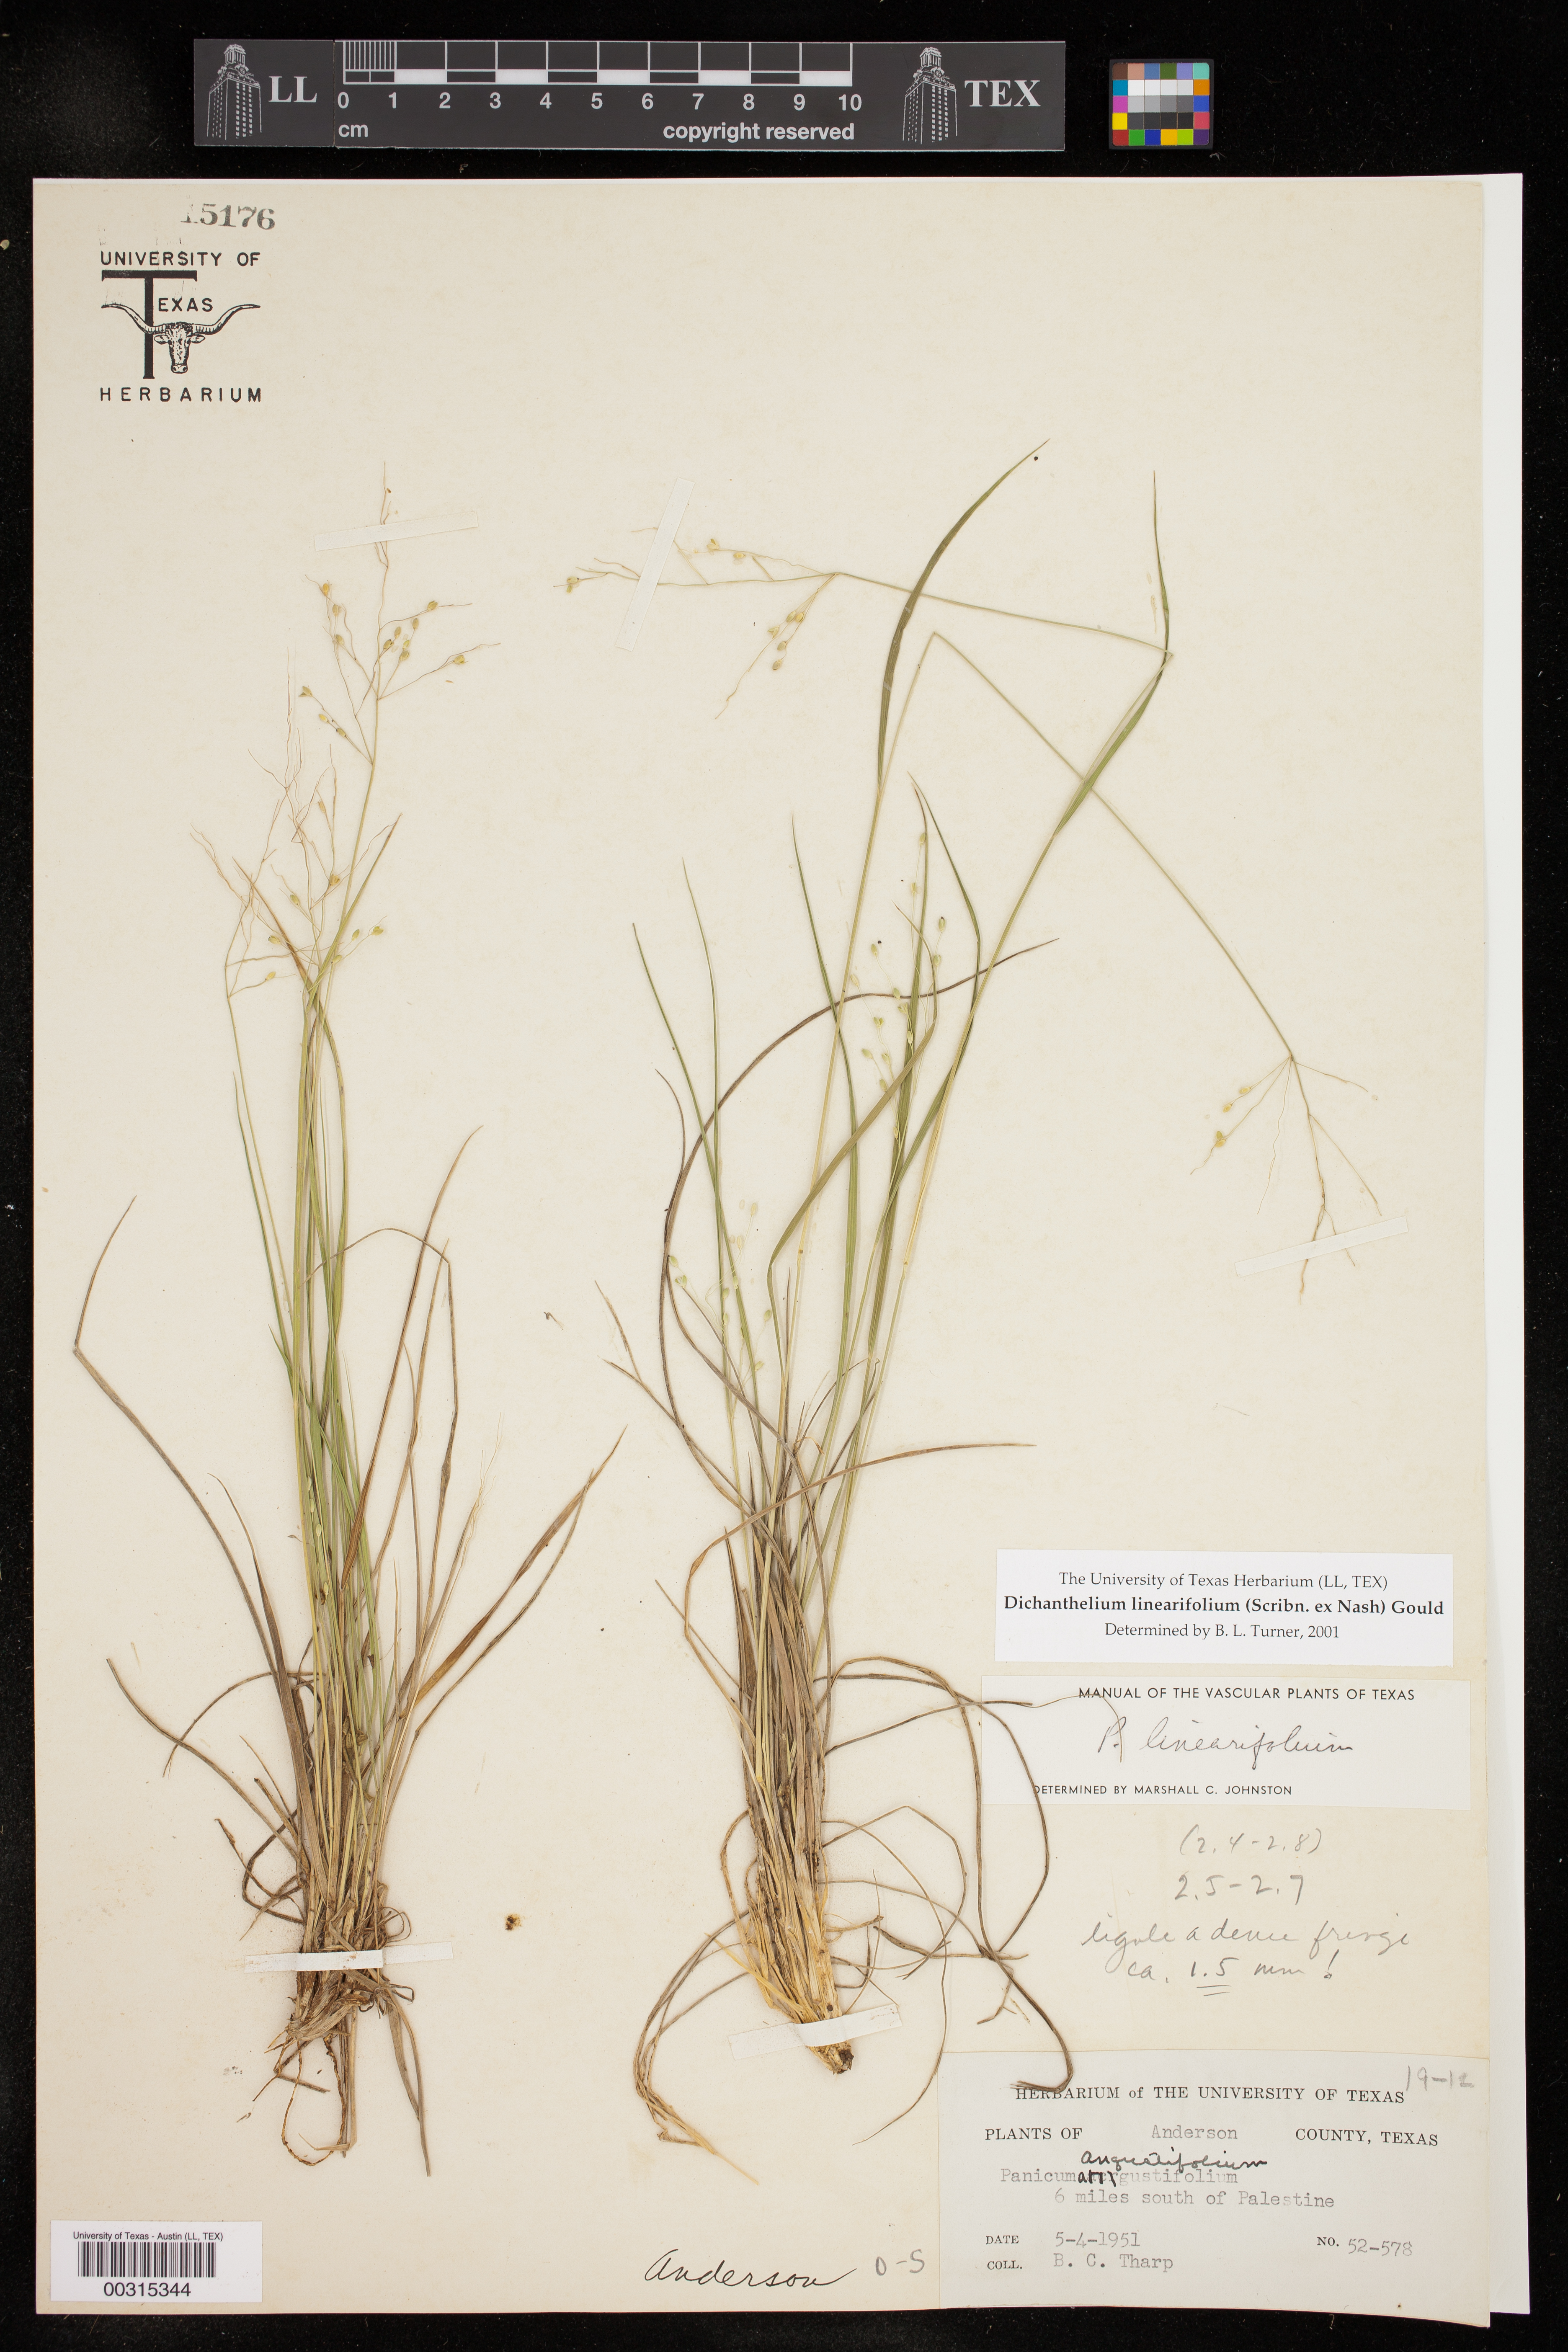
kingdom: Plantae
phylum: Tracheophyta
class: Liliopsida
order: Poales
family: Poaceae
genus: Dichanthelium
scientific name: Dichanthelium linearifolium
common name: Linear-leaved panicgrass
